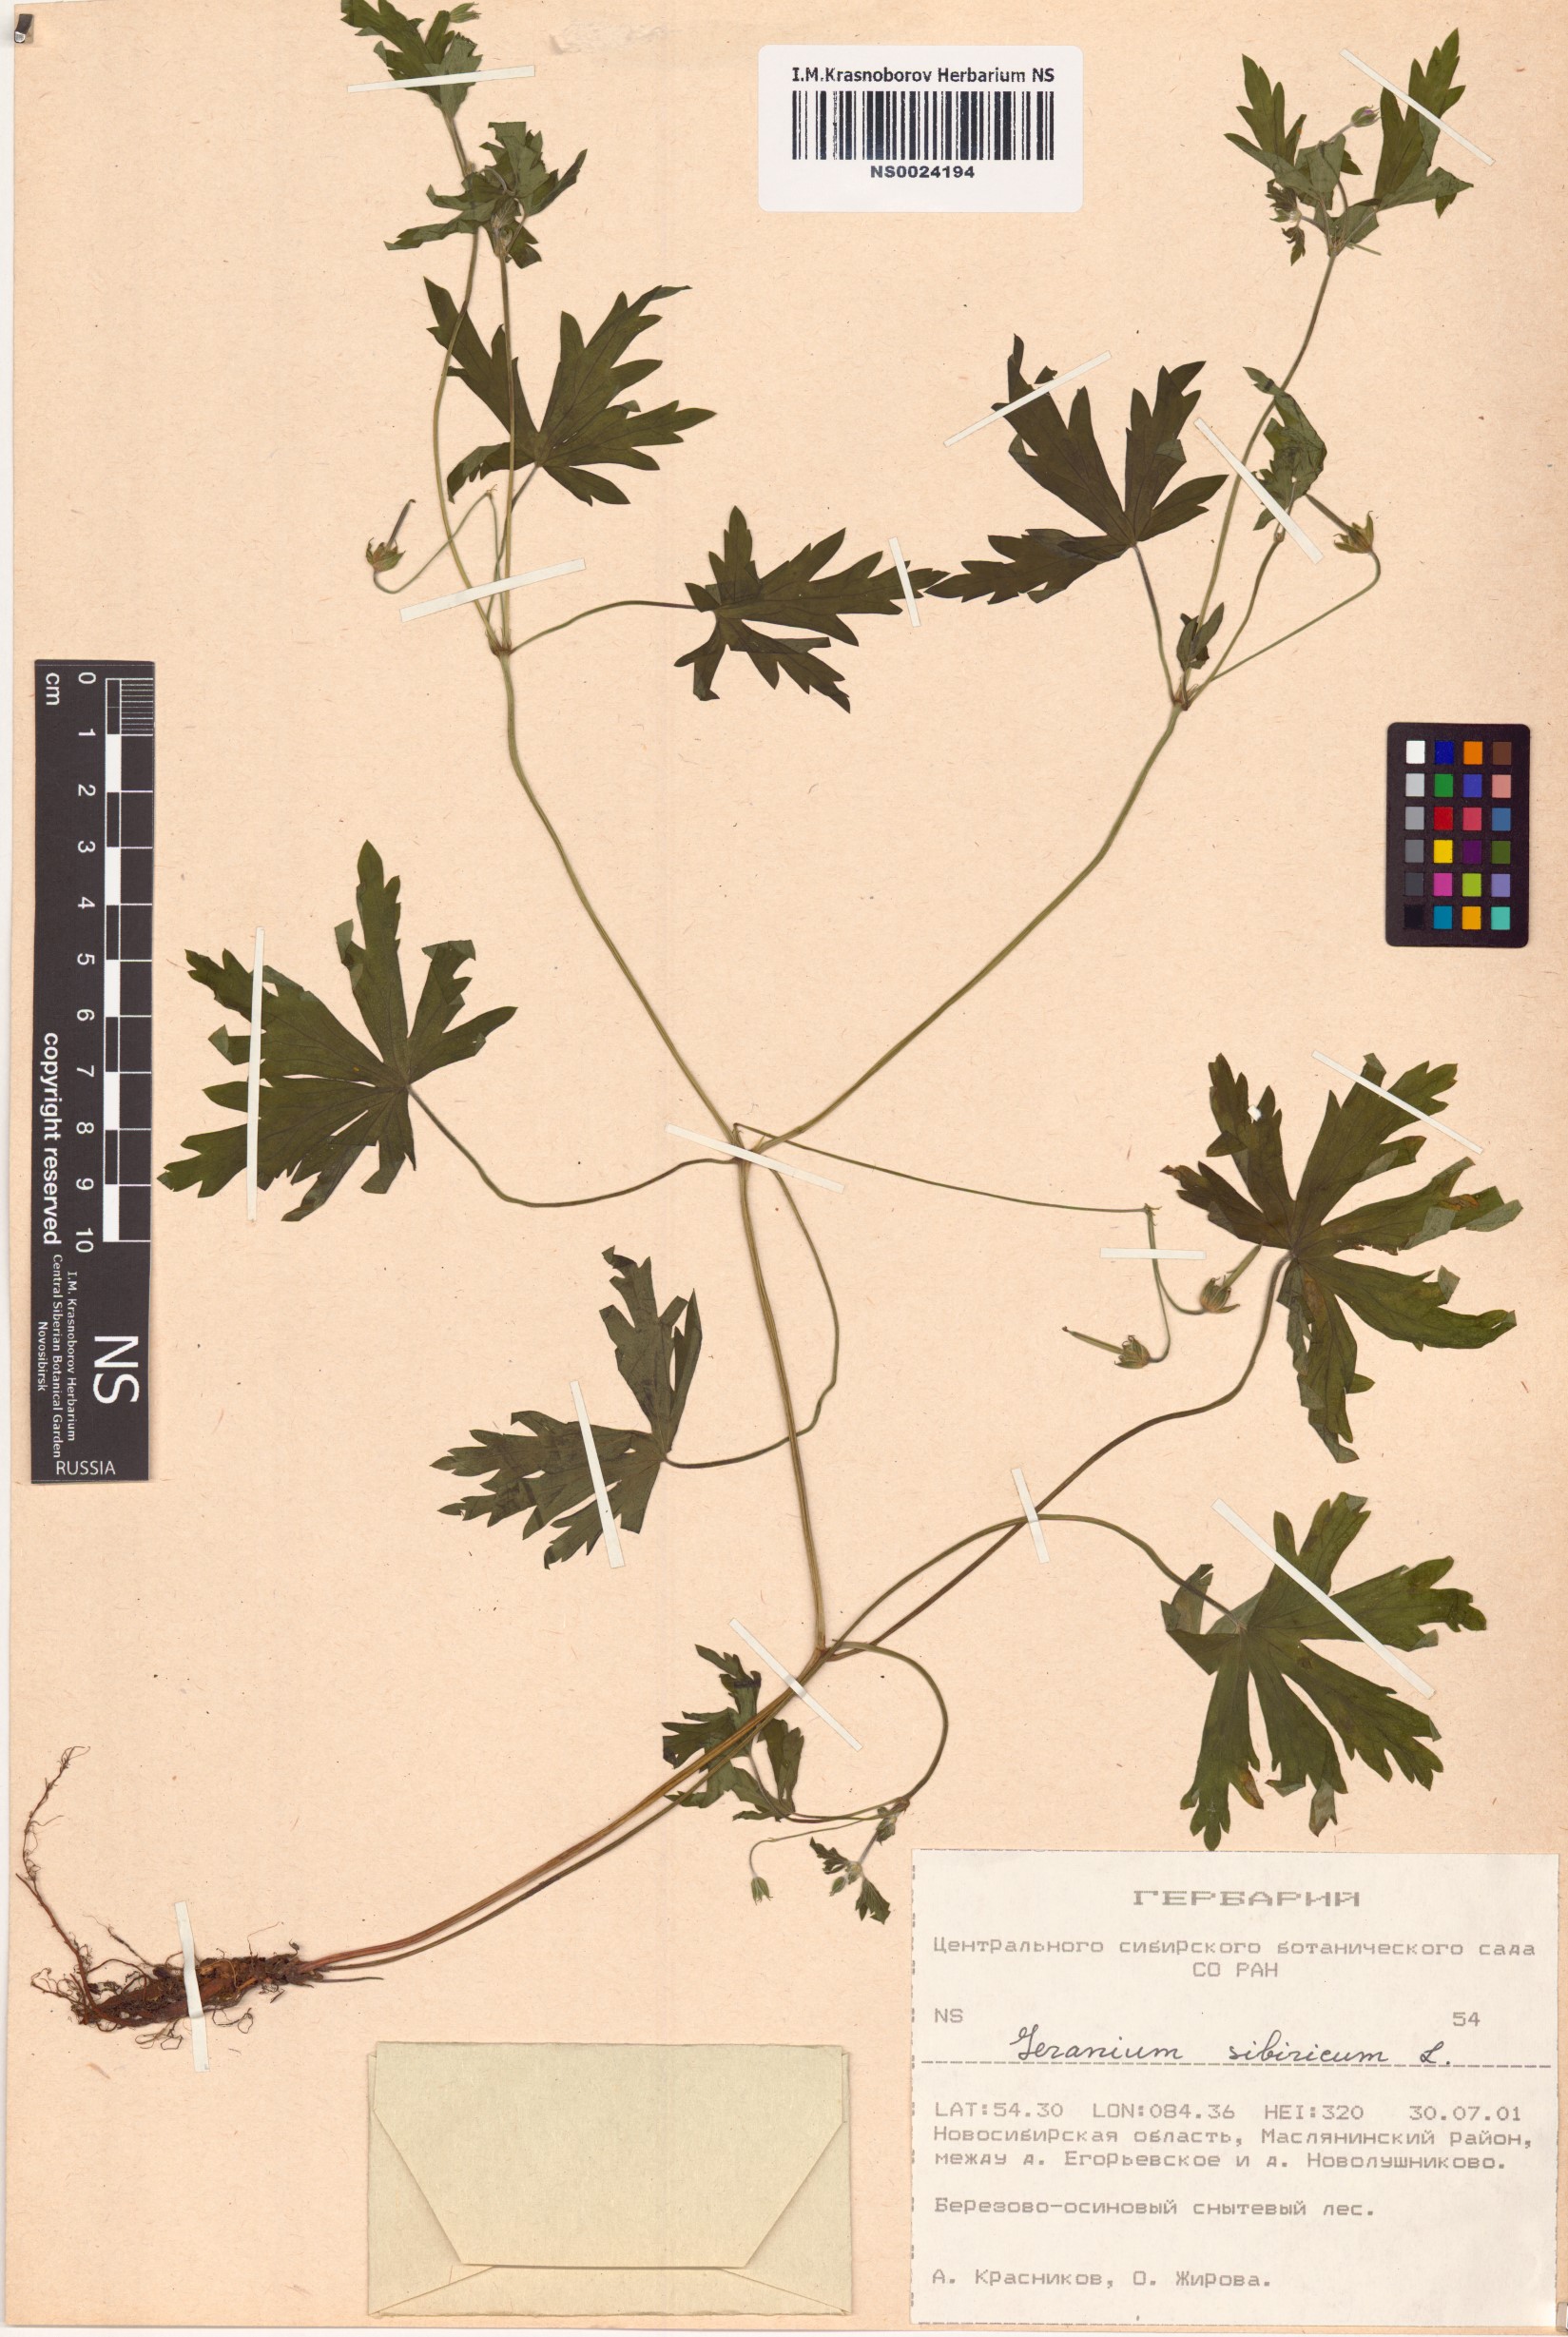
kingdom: Plantae
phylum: Tracheophyta
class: Magnoliopsida
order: Geraniales
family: Geraniaceae
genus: Geranium
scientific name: Geranium sibiricum
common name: Siberian crane's-bill
